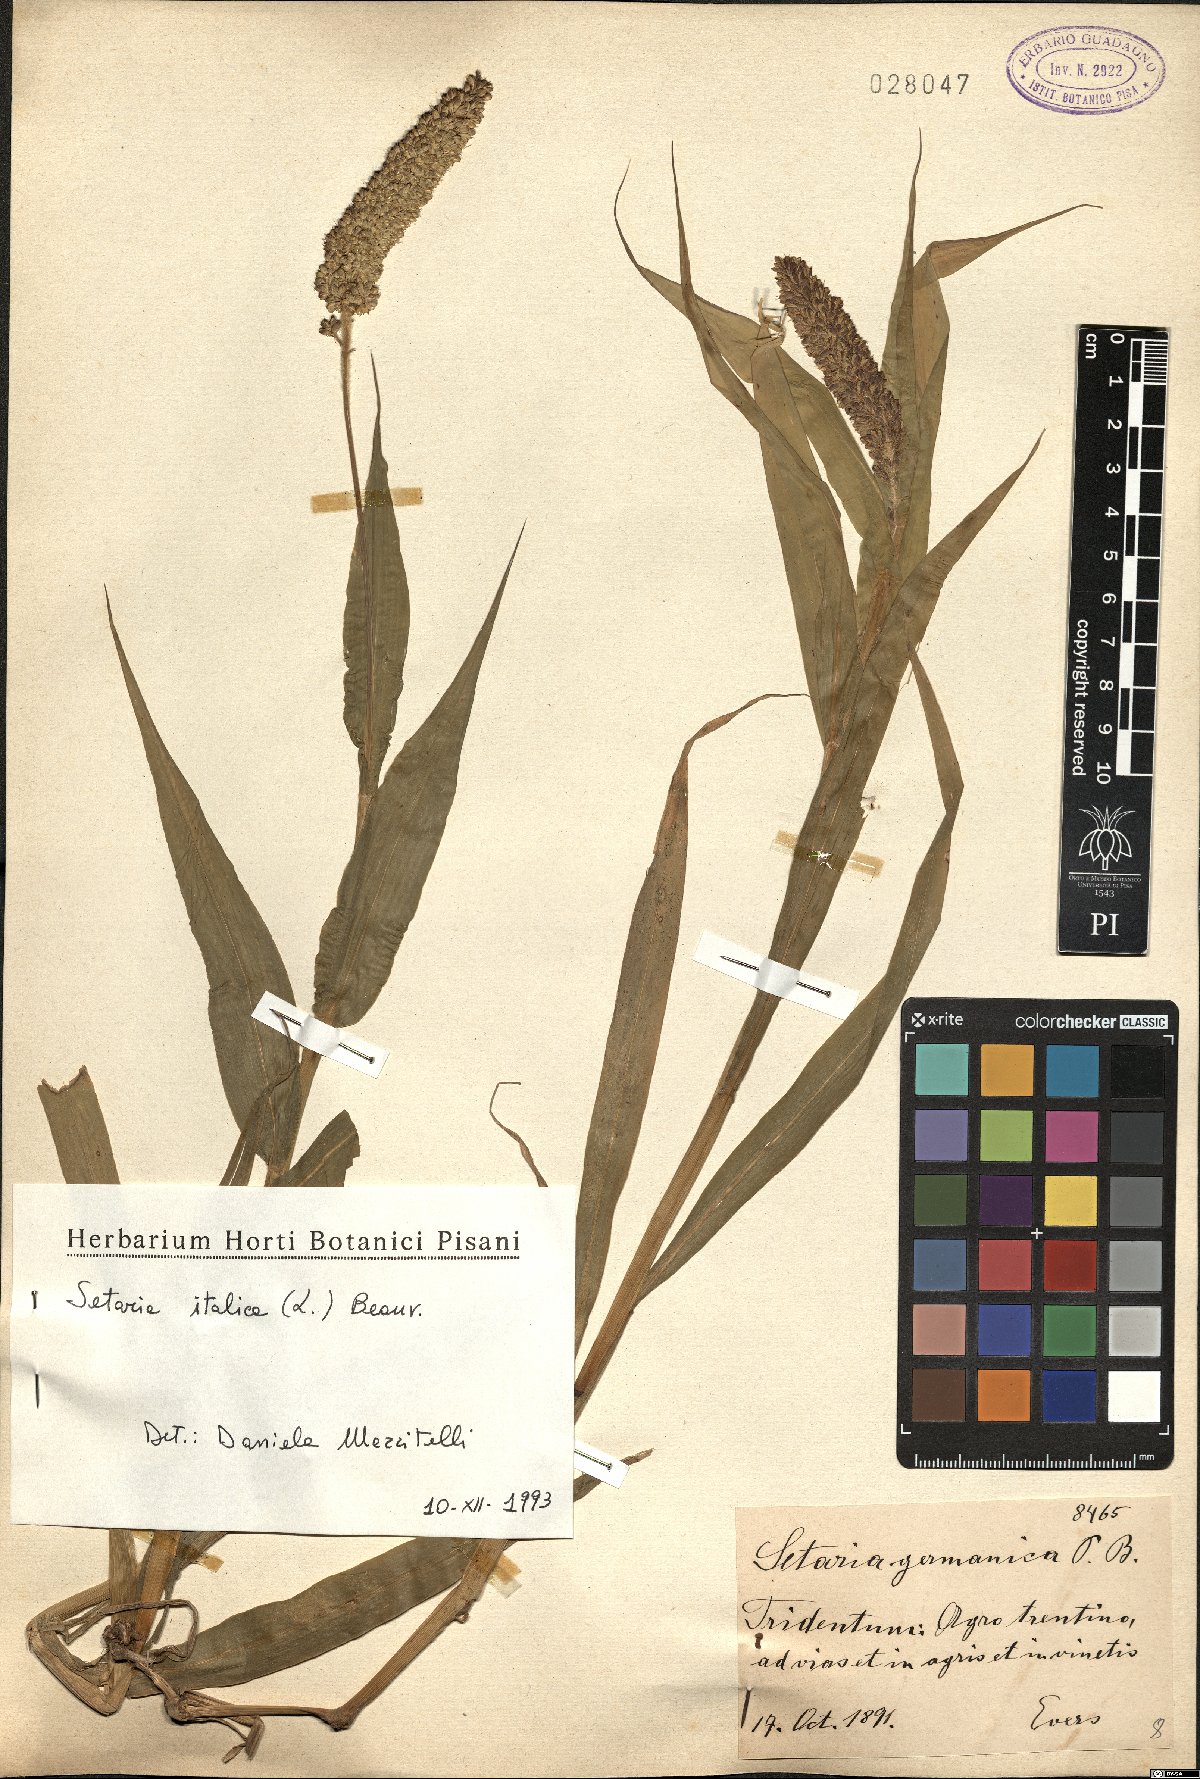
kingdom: Plantae
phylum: Tracheophyta
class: Liliopsida
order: Poales
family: Poaceae
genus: Setaria
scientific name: Setaria italica
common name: Foxtail bristle-grass
